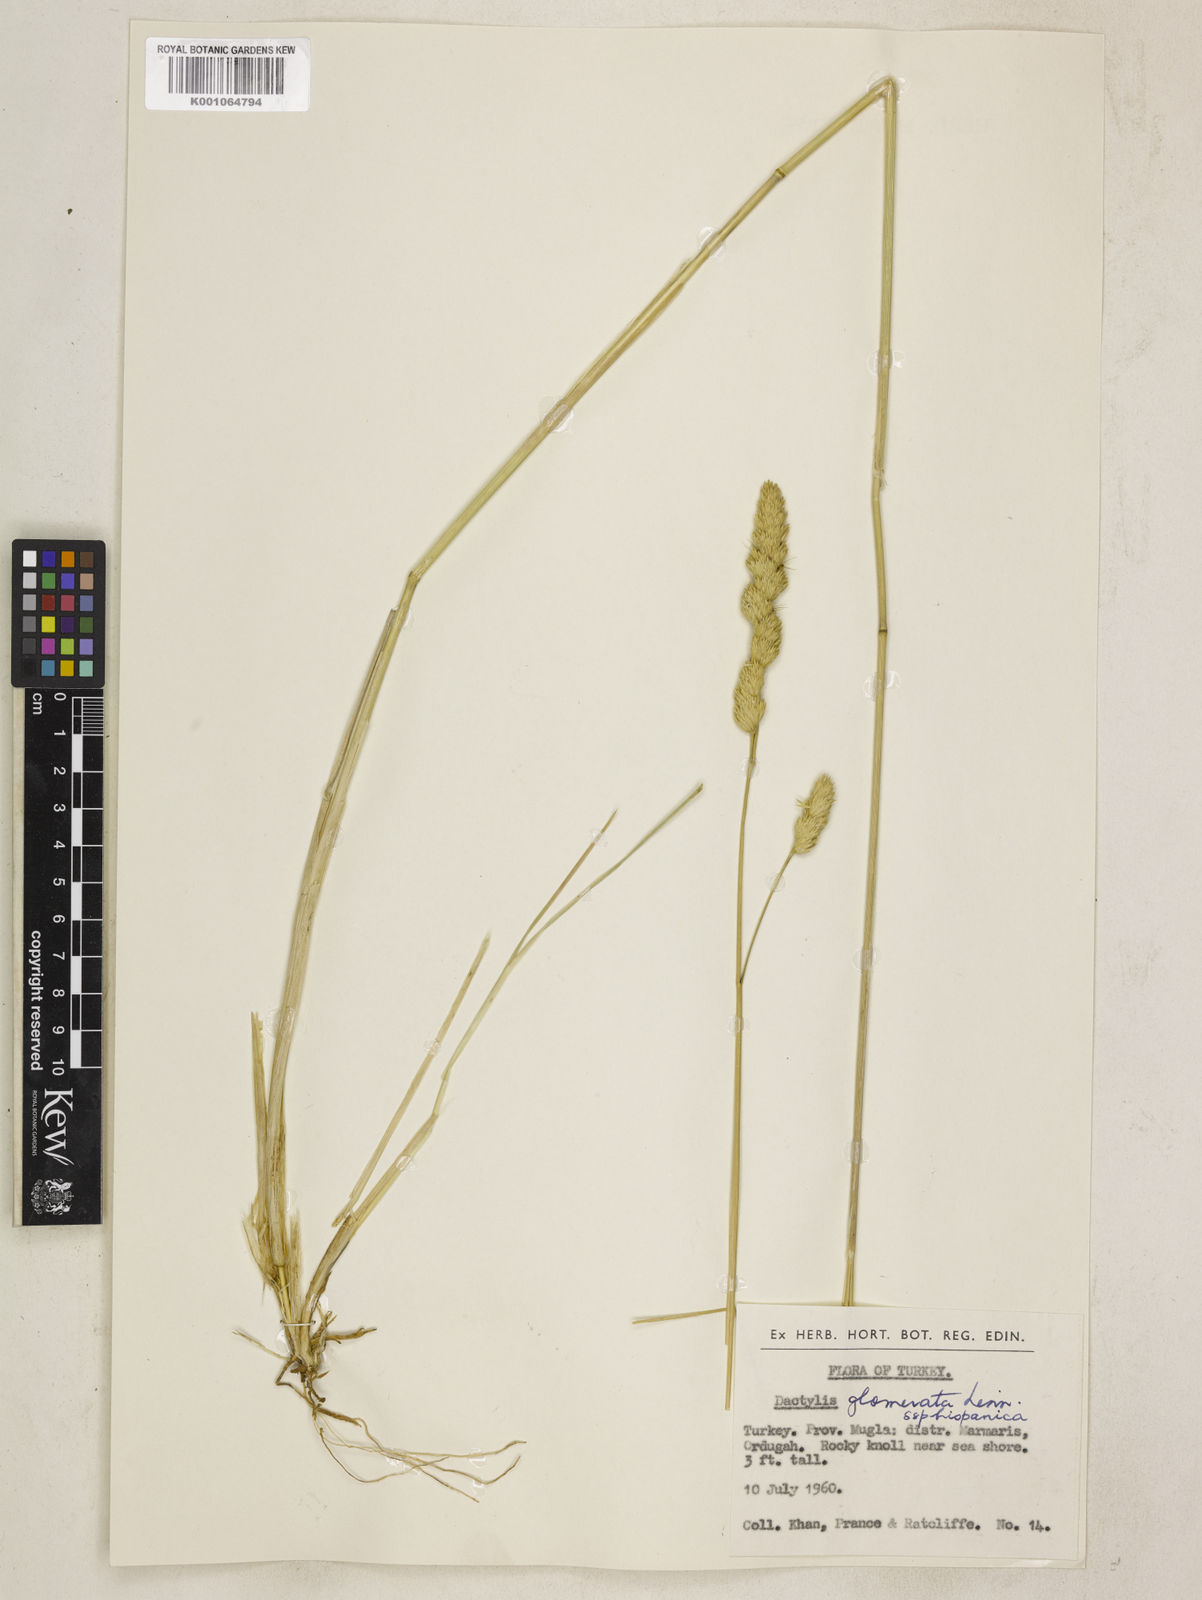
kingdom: Plantae
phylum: Tracheophyta
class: Liliopsida
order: Poales
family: Poaceae
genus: Dactylis
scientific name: Dactylis glomerata
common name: Orchardgrass
